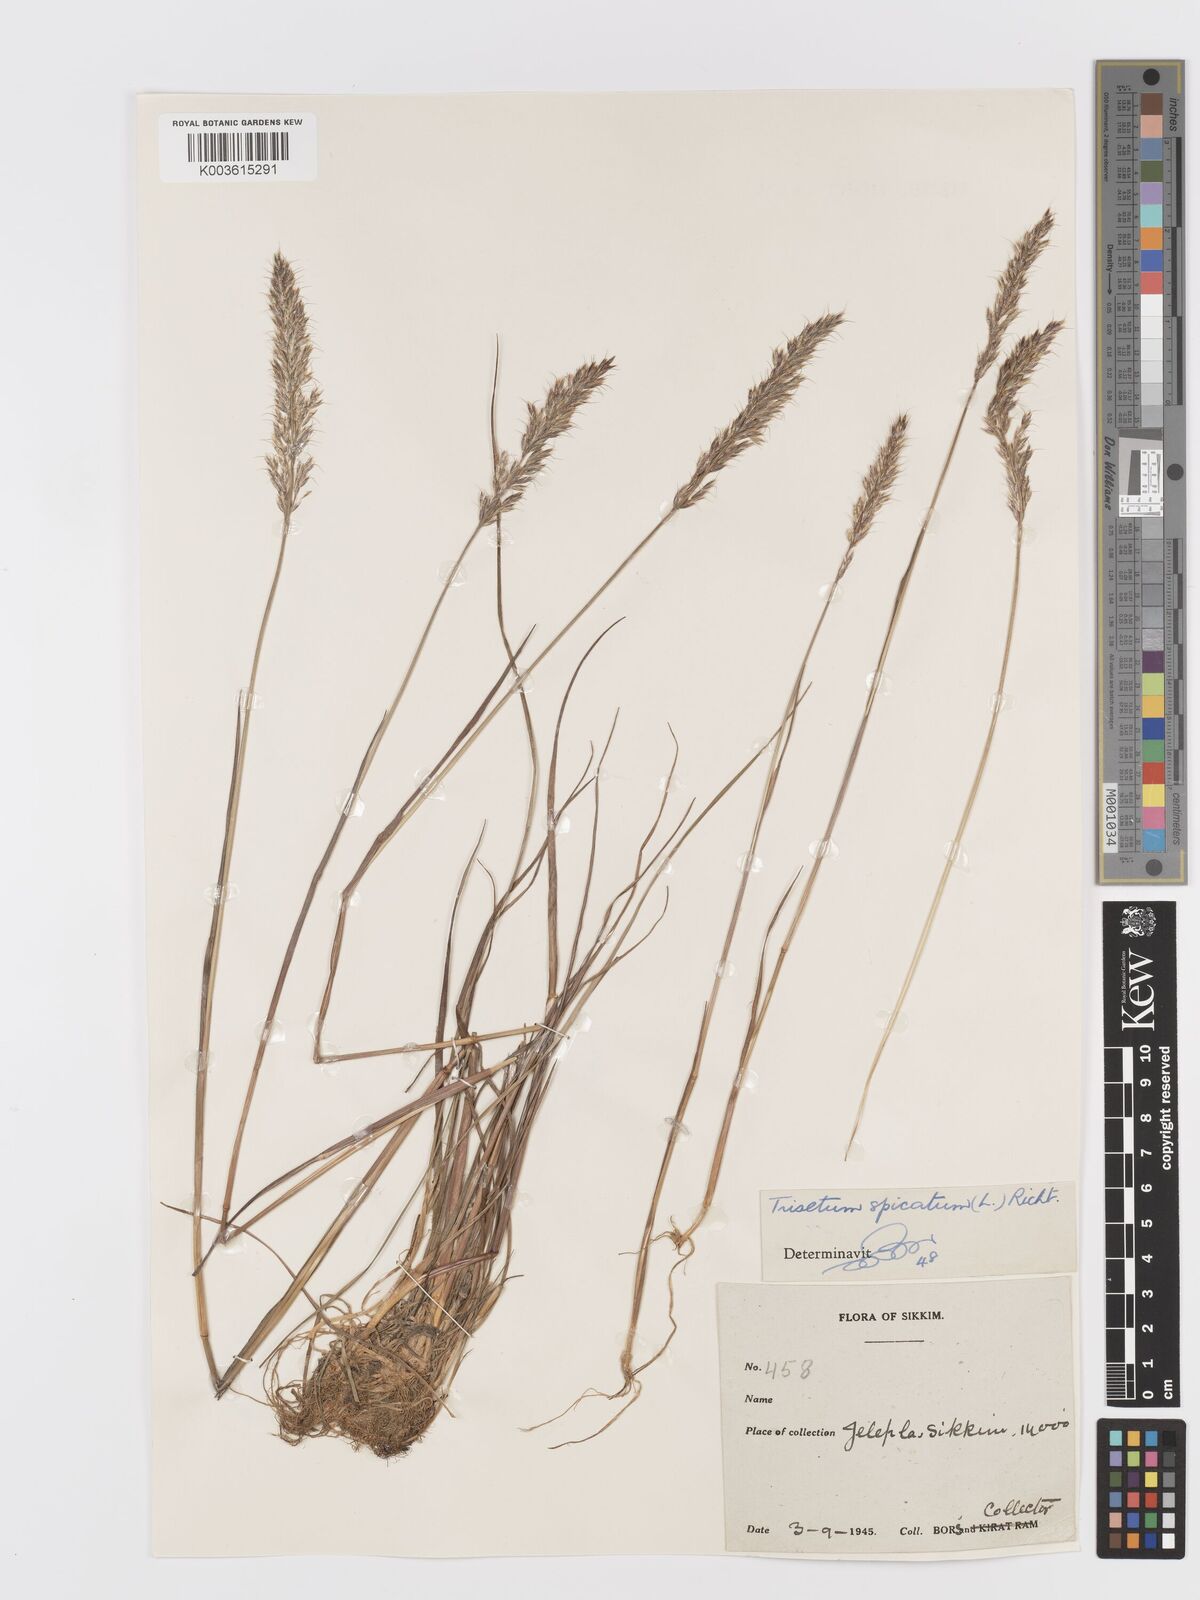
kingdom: Plantae
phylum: Tracheophyta
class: Liliopsida
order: Poales
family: Poaceae
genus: Koeleria
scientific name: Koeleria spicata
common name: Mountain trisetum
